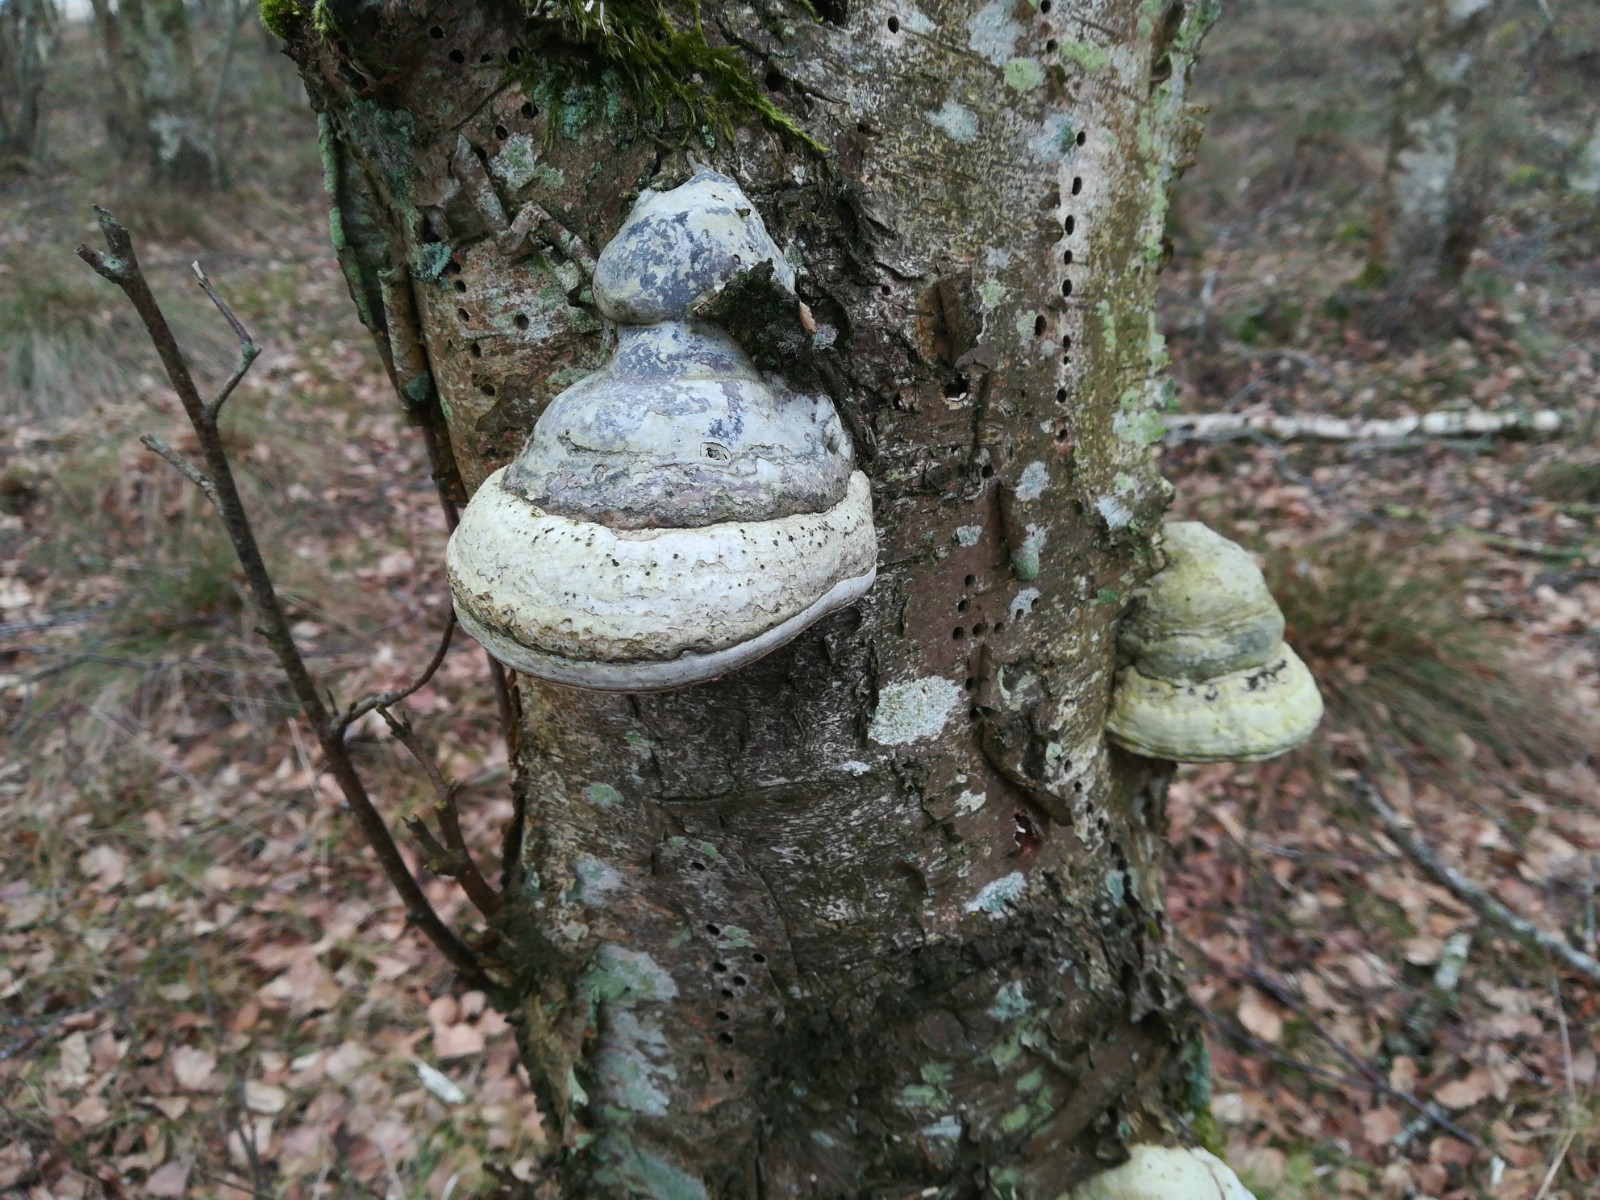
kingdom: Fungi
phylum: Basidiomycota
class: Agaricomycetes
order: Polyporales
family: Polyporaceae
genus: Fomes
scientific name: Fomes fomentarius
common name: tøndersvamp
